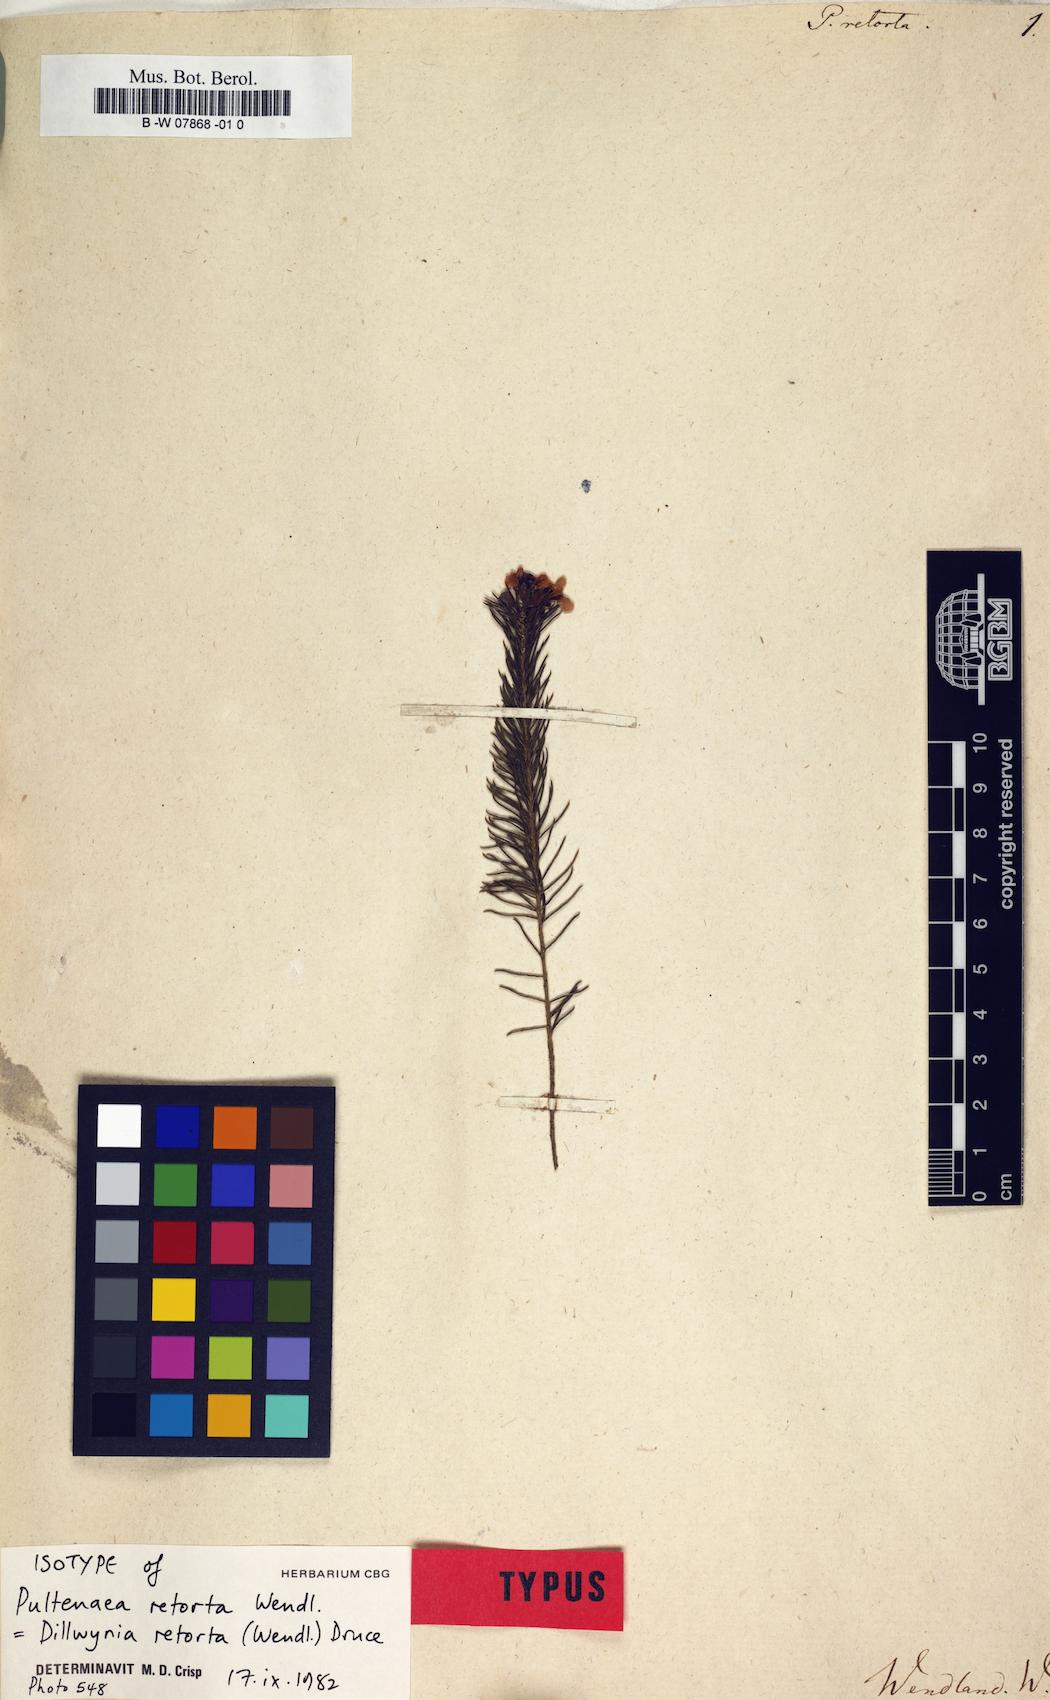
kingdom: Plantae
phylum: Tracheophyta
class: Magnoliopsida
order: Fabales
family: Fabaceae
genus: Dillwynia
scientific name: Dillwynia retorta
